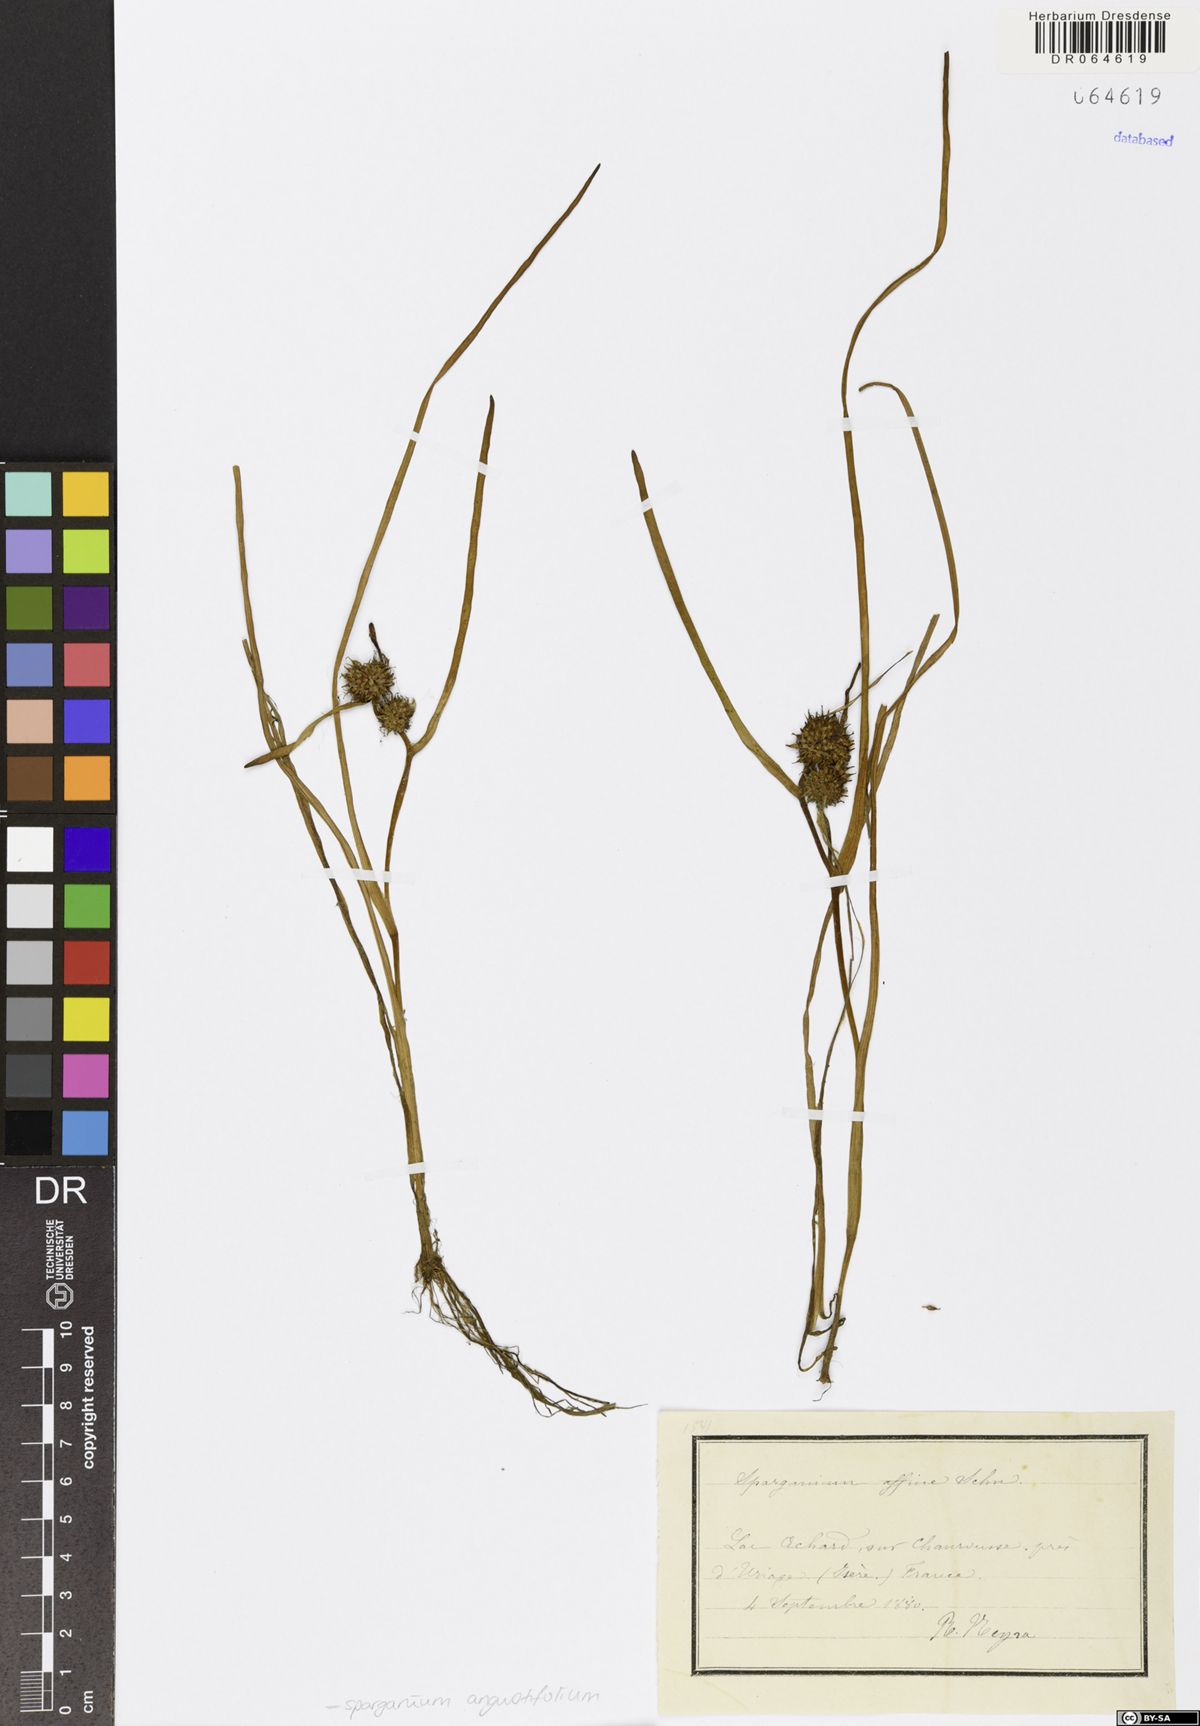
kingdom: Plantae
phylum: Tracheophyta
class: Liliopsida
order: Poales
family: Typhaceae
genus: Sparganium
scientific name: Sparganium angustifolium
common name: Floating bur-reed
